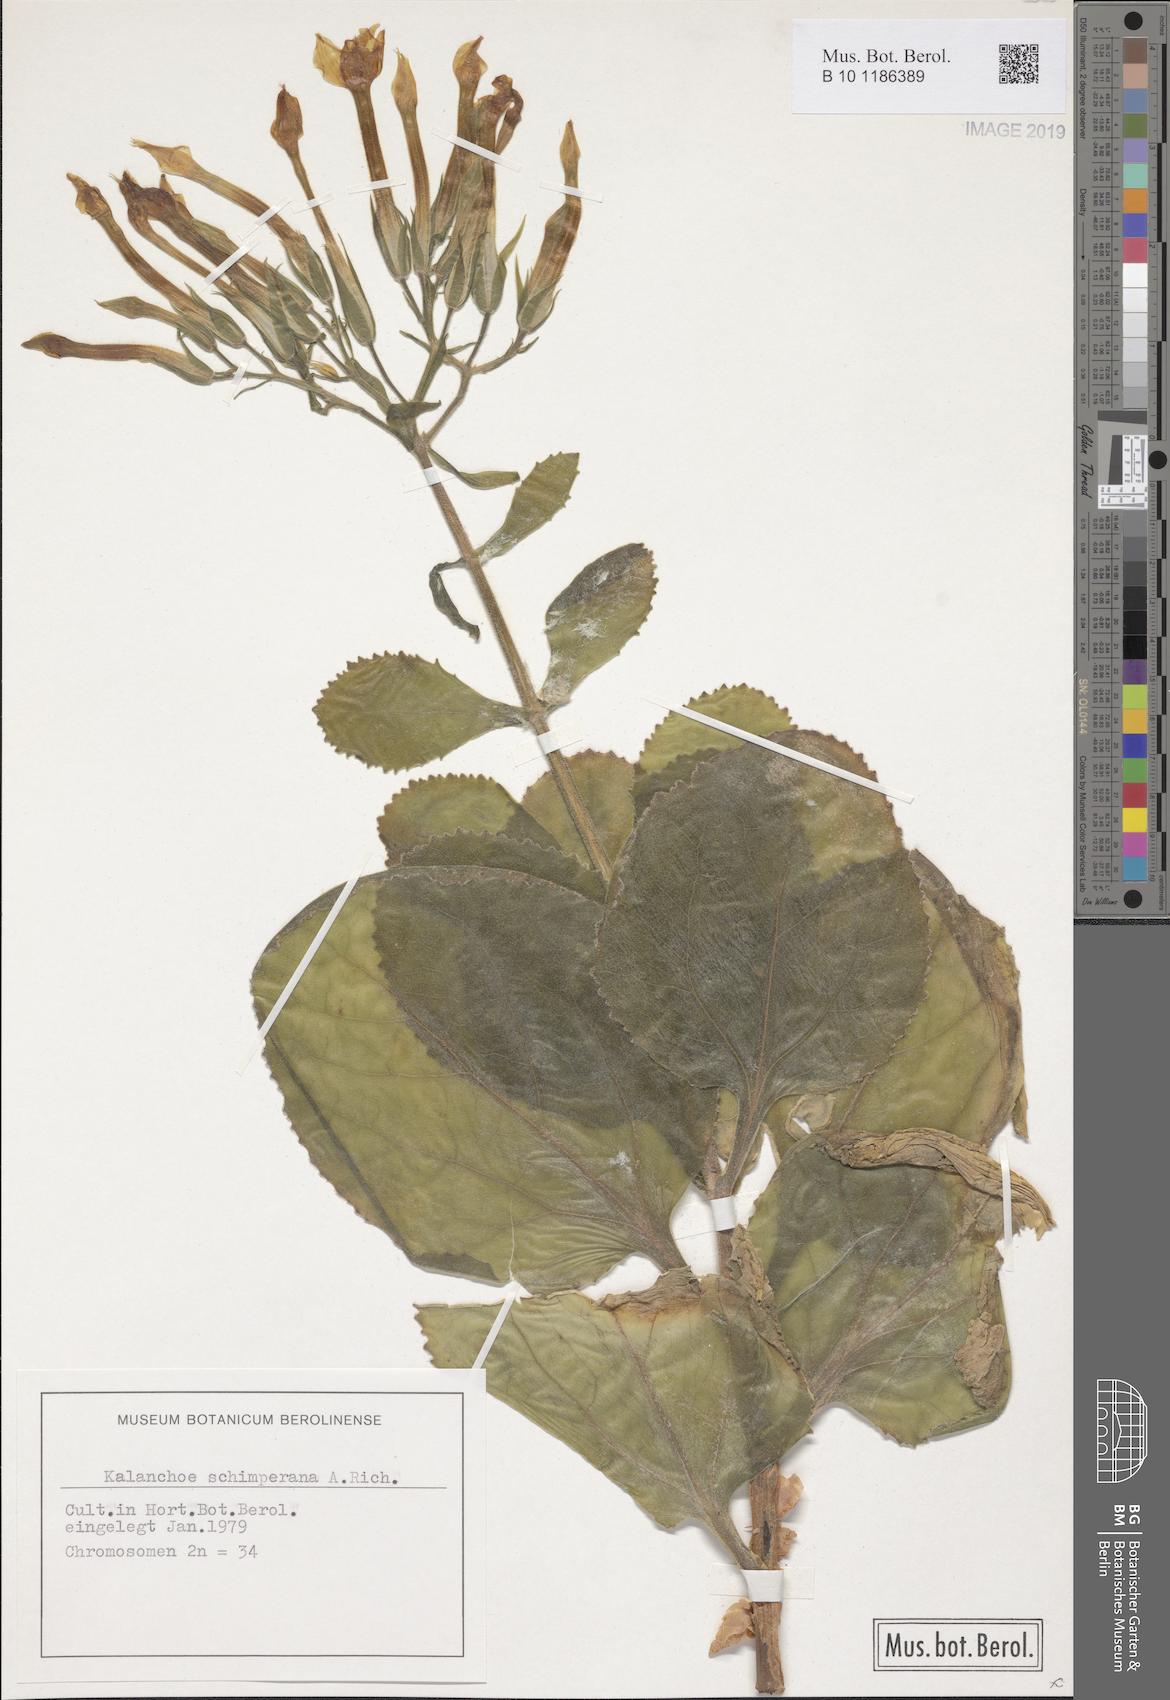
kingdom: Plantae
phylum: Tracheophyta
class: Magnoliopsida
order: Saxifragales
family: Crassulaceae
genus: Kalanchoe
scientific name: Kalanchoe schimperiana
